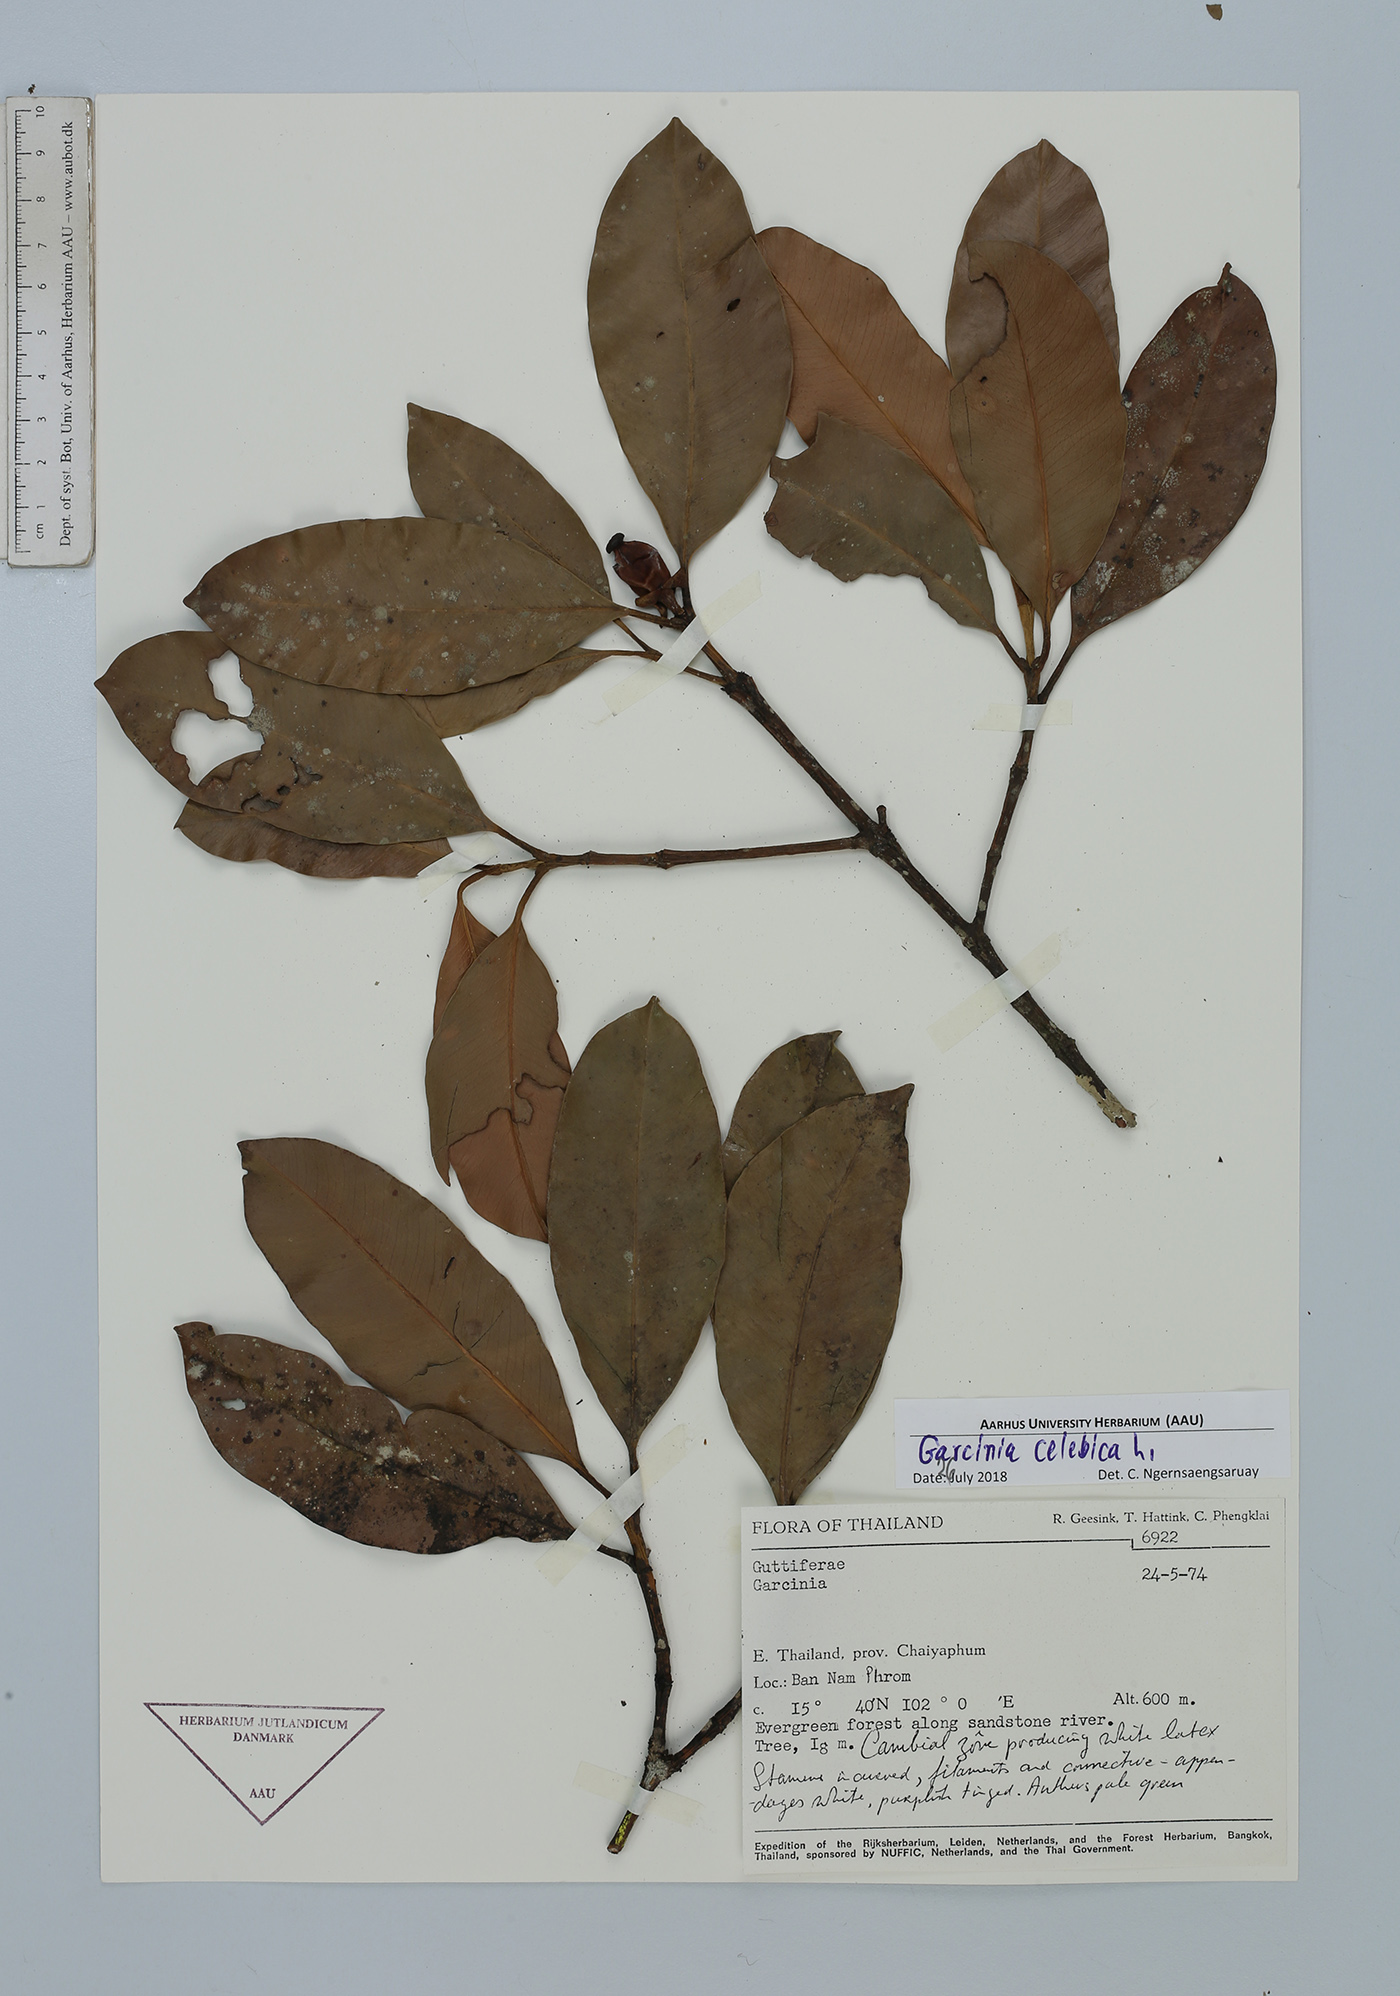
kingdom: Plantae
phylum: Tracheophyta
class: Magnoliopsida
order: Malpighiales
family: Clusiaceae
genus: Garcinia
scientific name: Garcinia celebica
